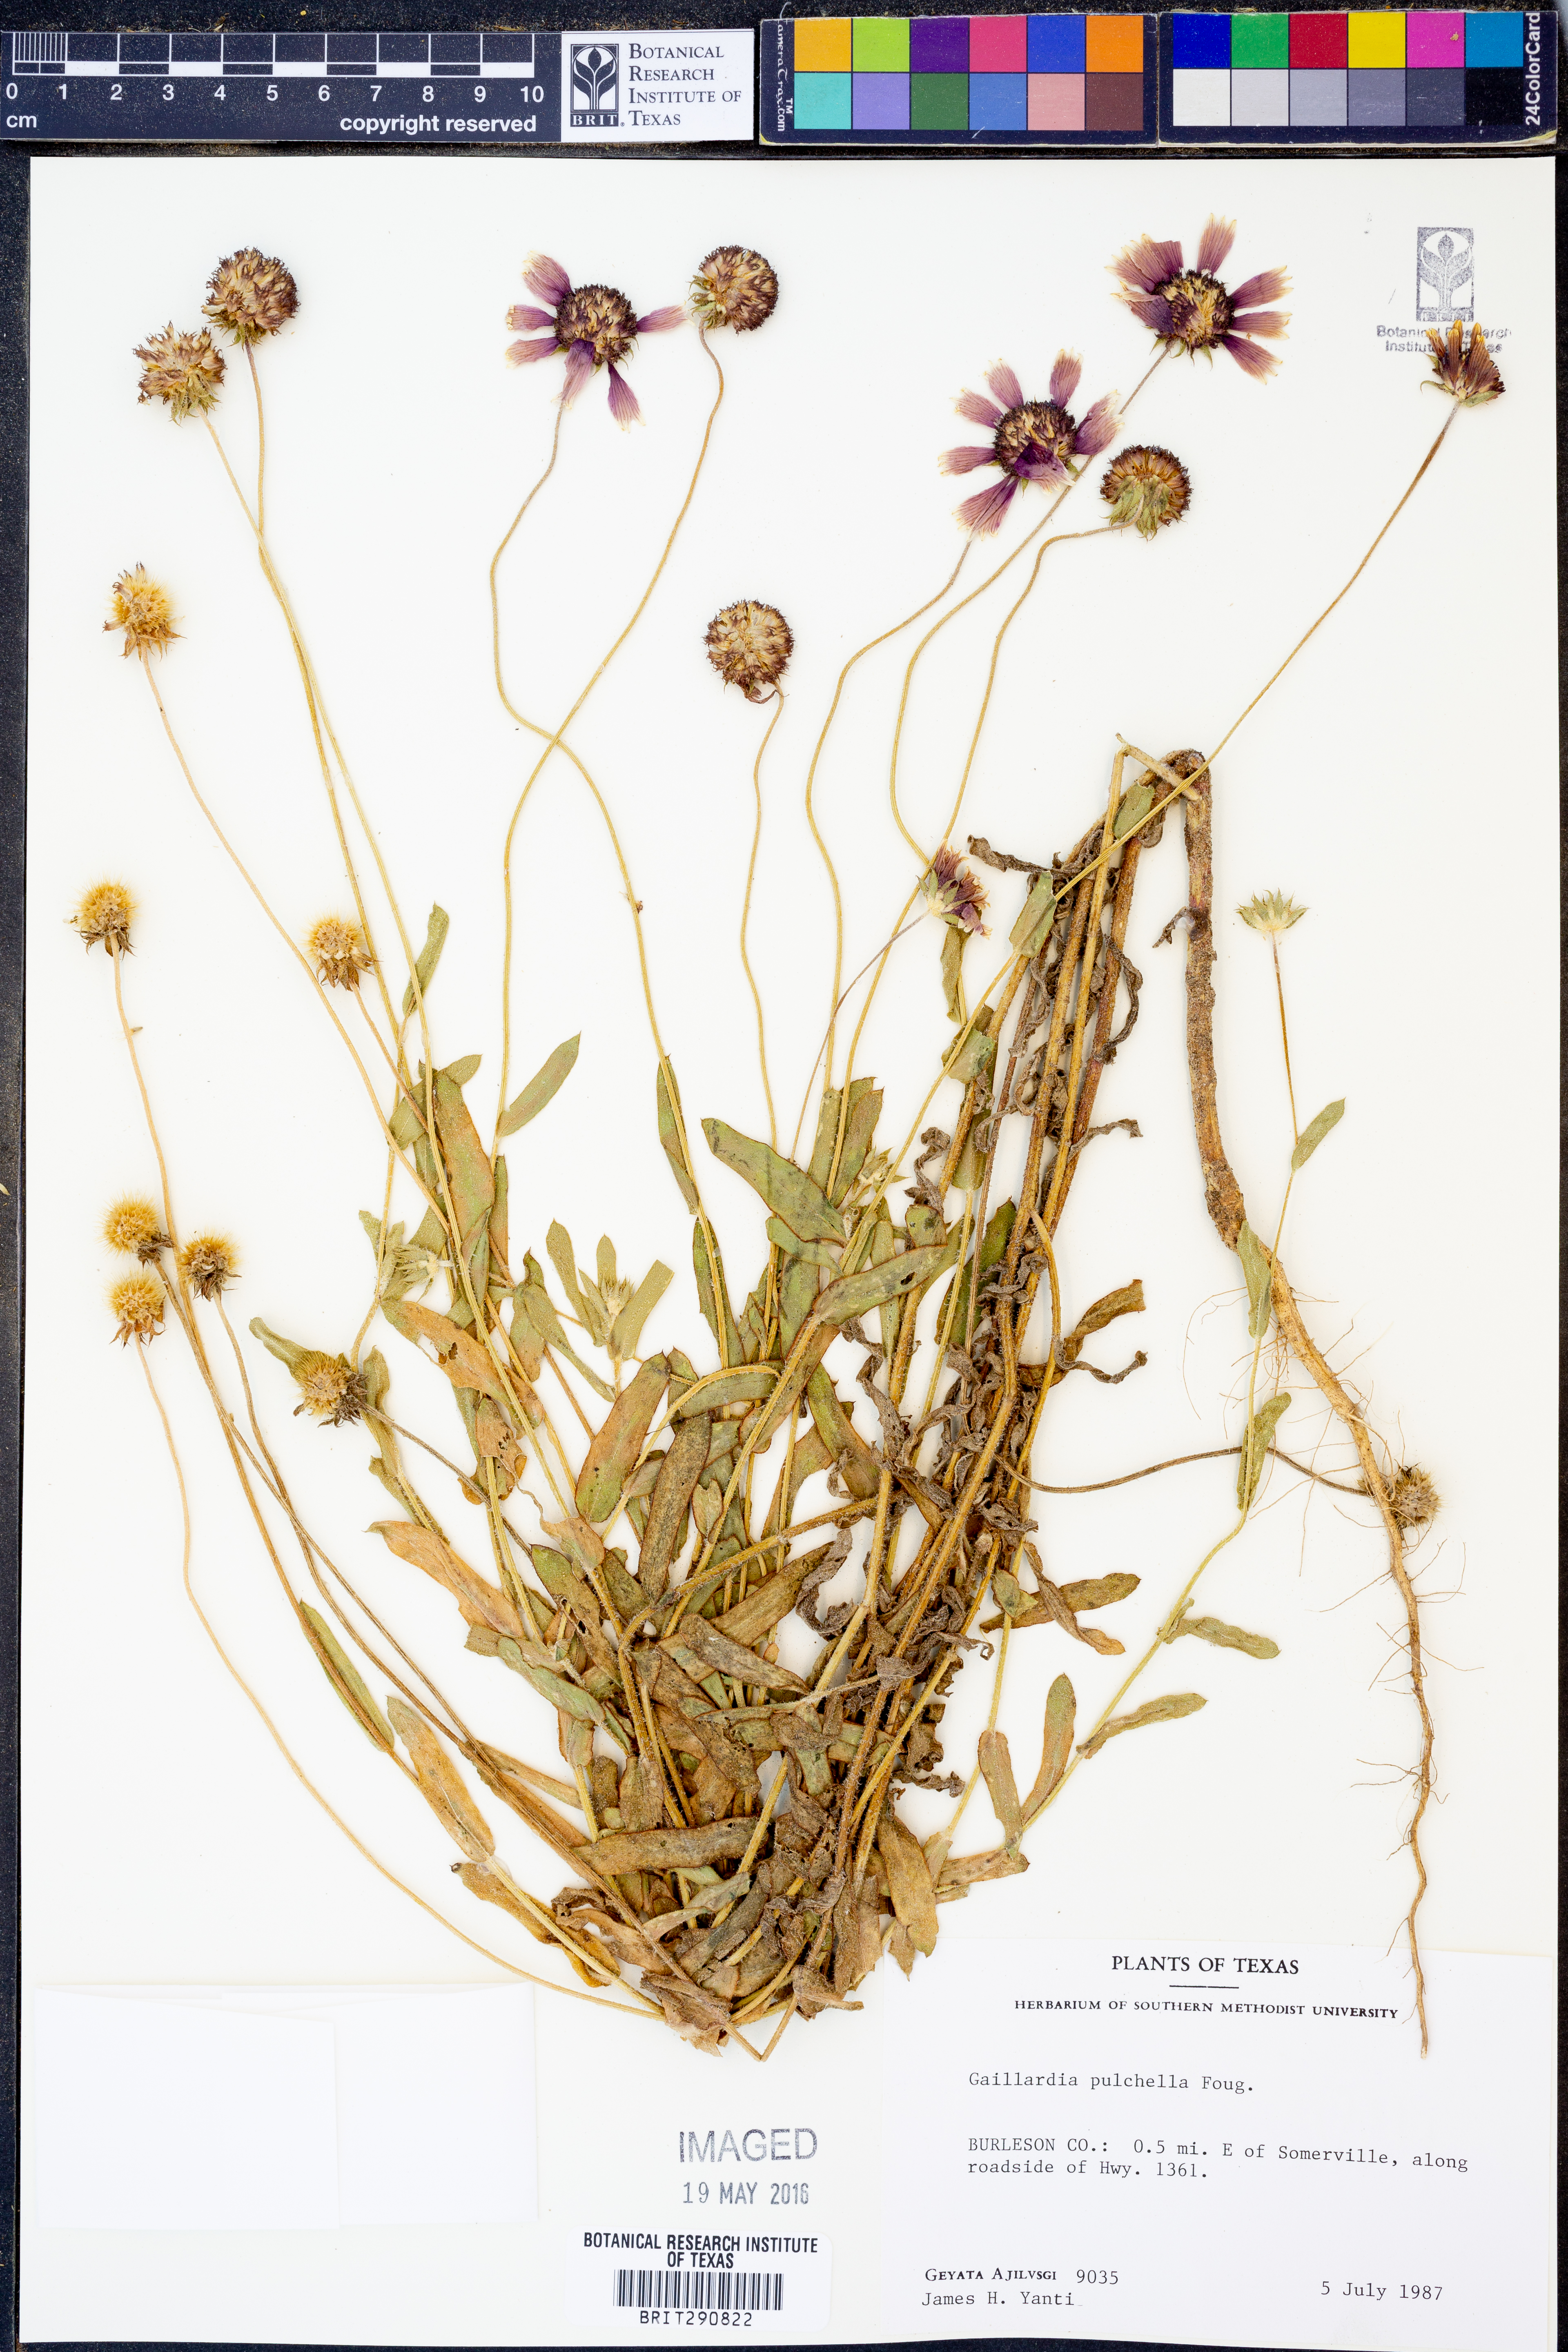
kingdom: Plantae
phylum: Tracheophyta
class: Magnoliopsida
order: Asterales
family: Asteraceae
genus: Gaillardia
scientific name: Gaillardia pulchella
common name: Firewheel
